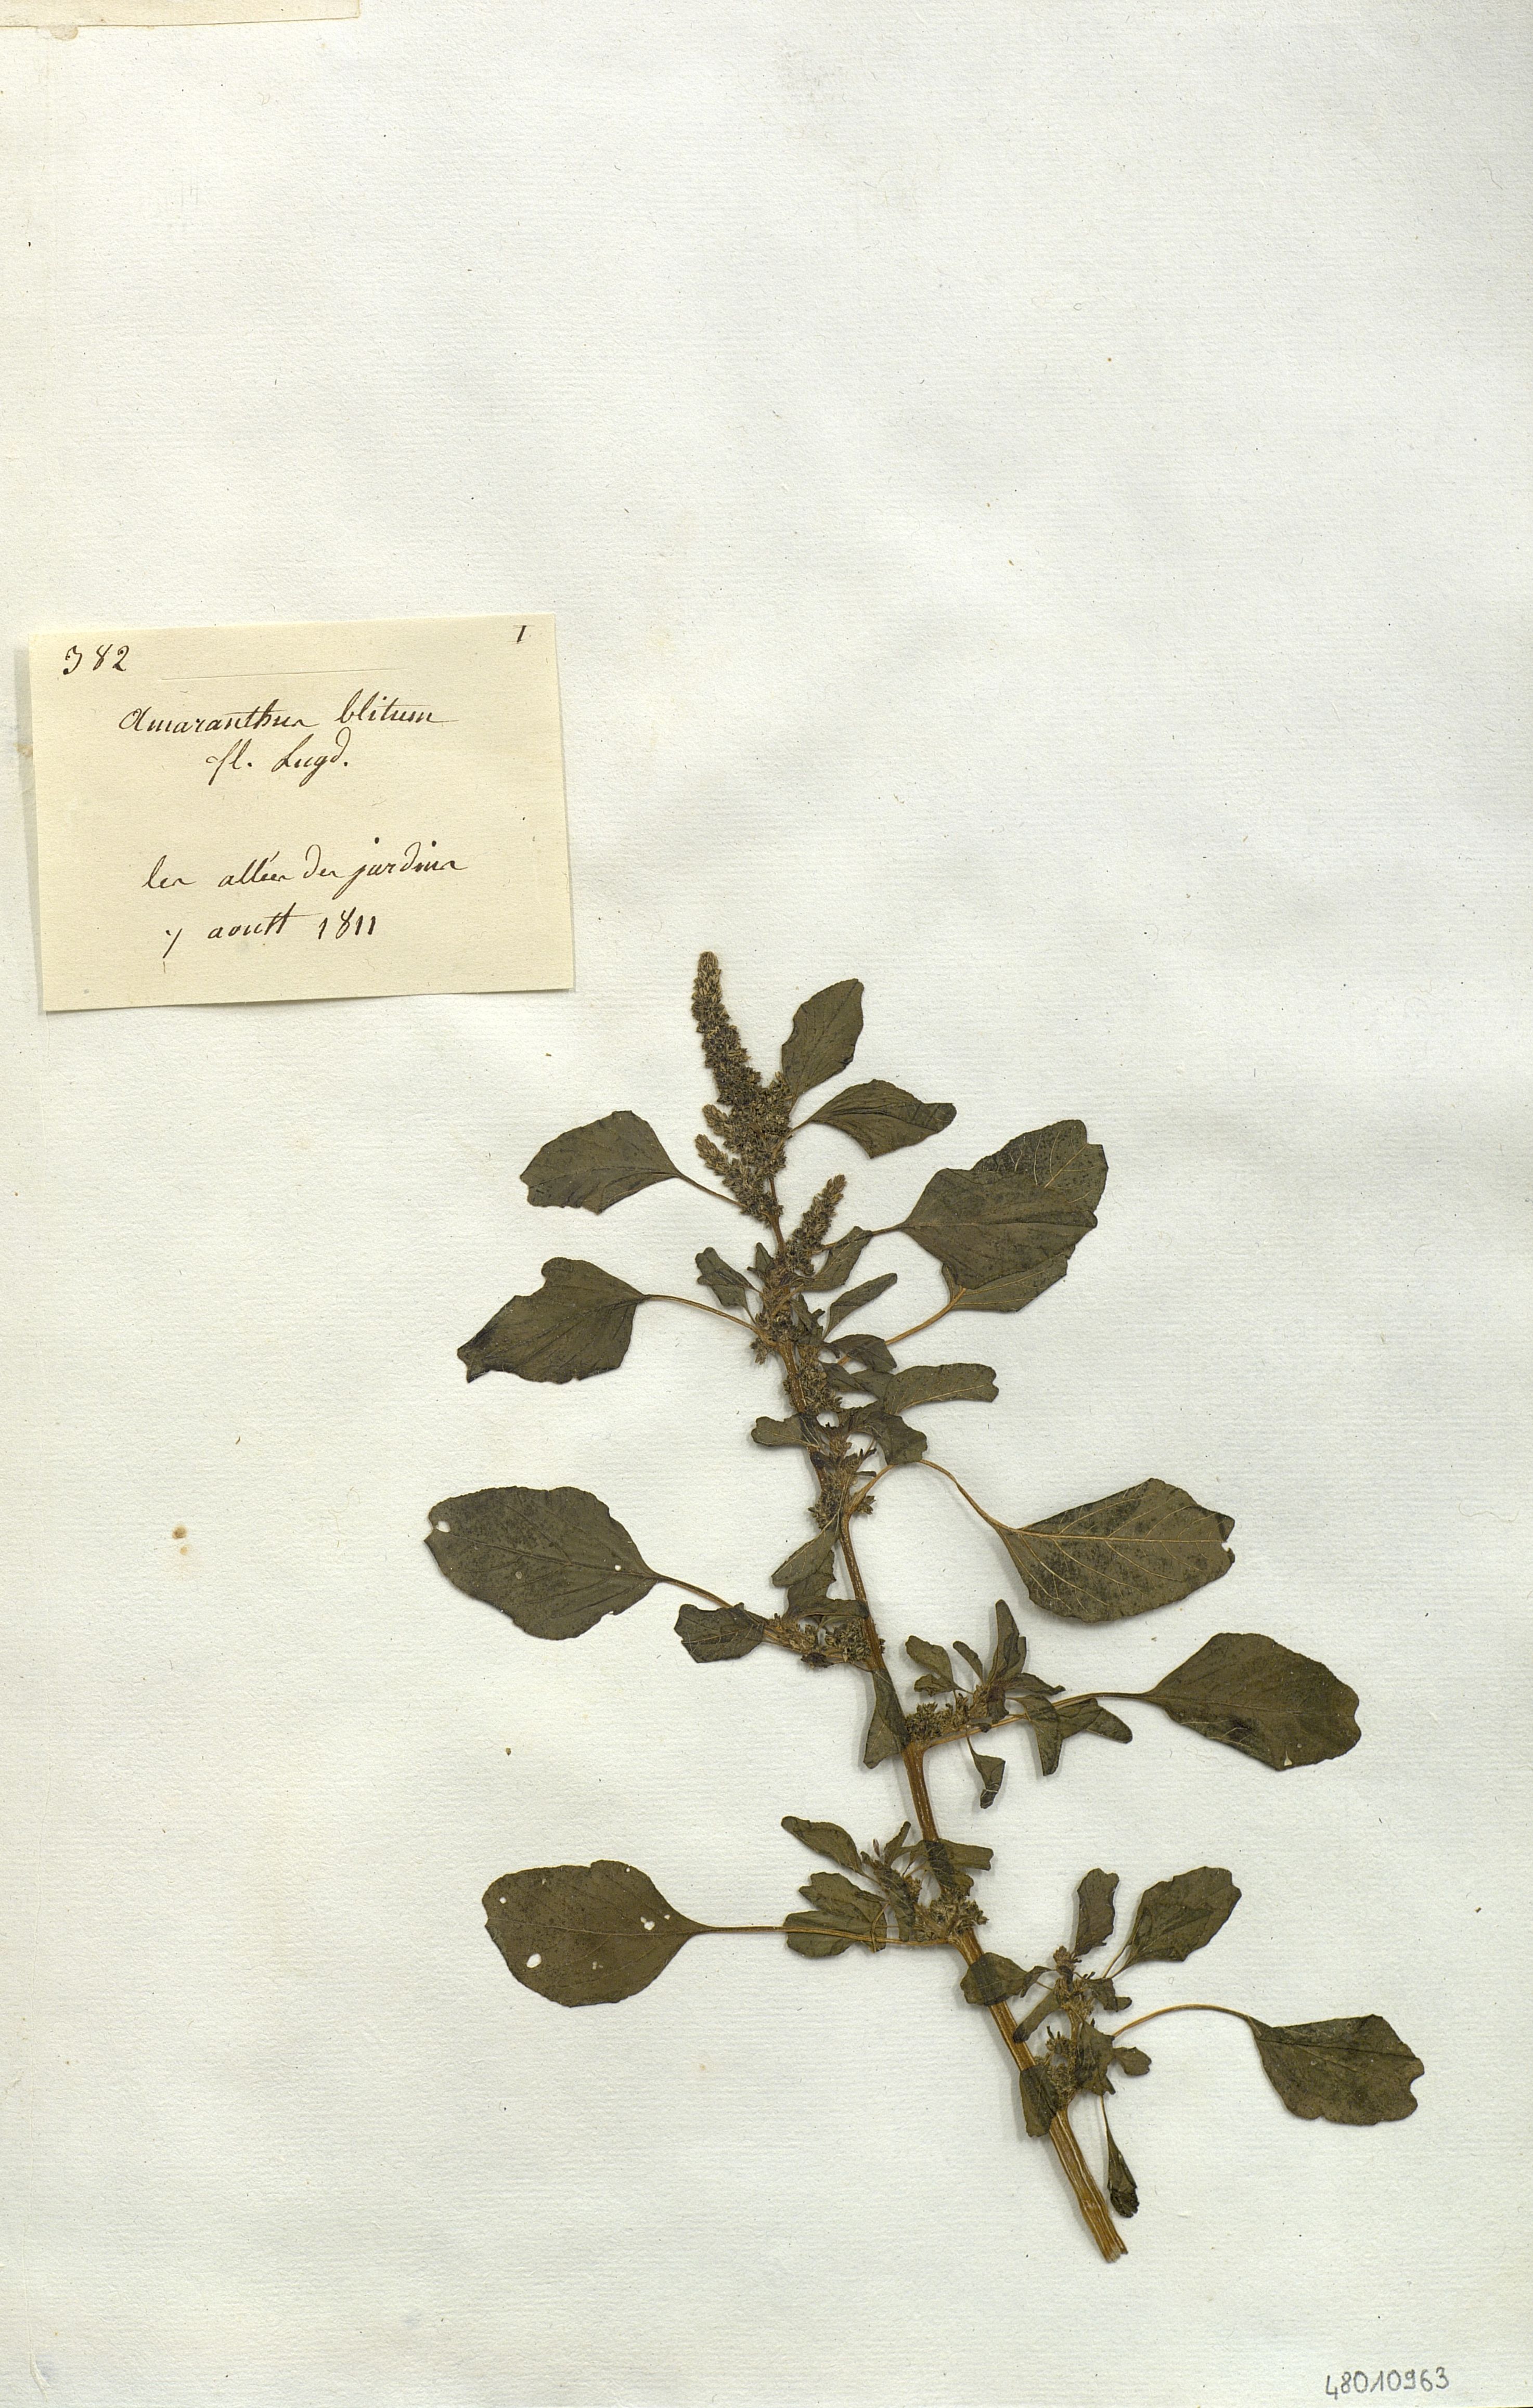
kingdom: Plantae
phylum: Tracheophyta
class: Magnoliopsida
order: Caryophyllales
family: Amaranthaceae
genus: Amaranthus
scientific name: Amaranthus blitum
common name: Purple amaranth
